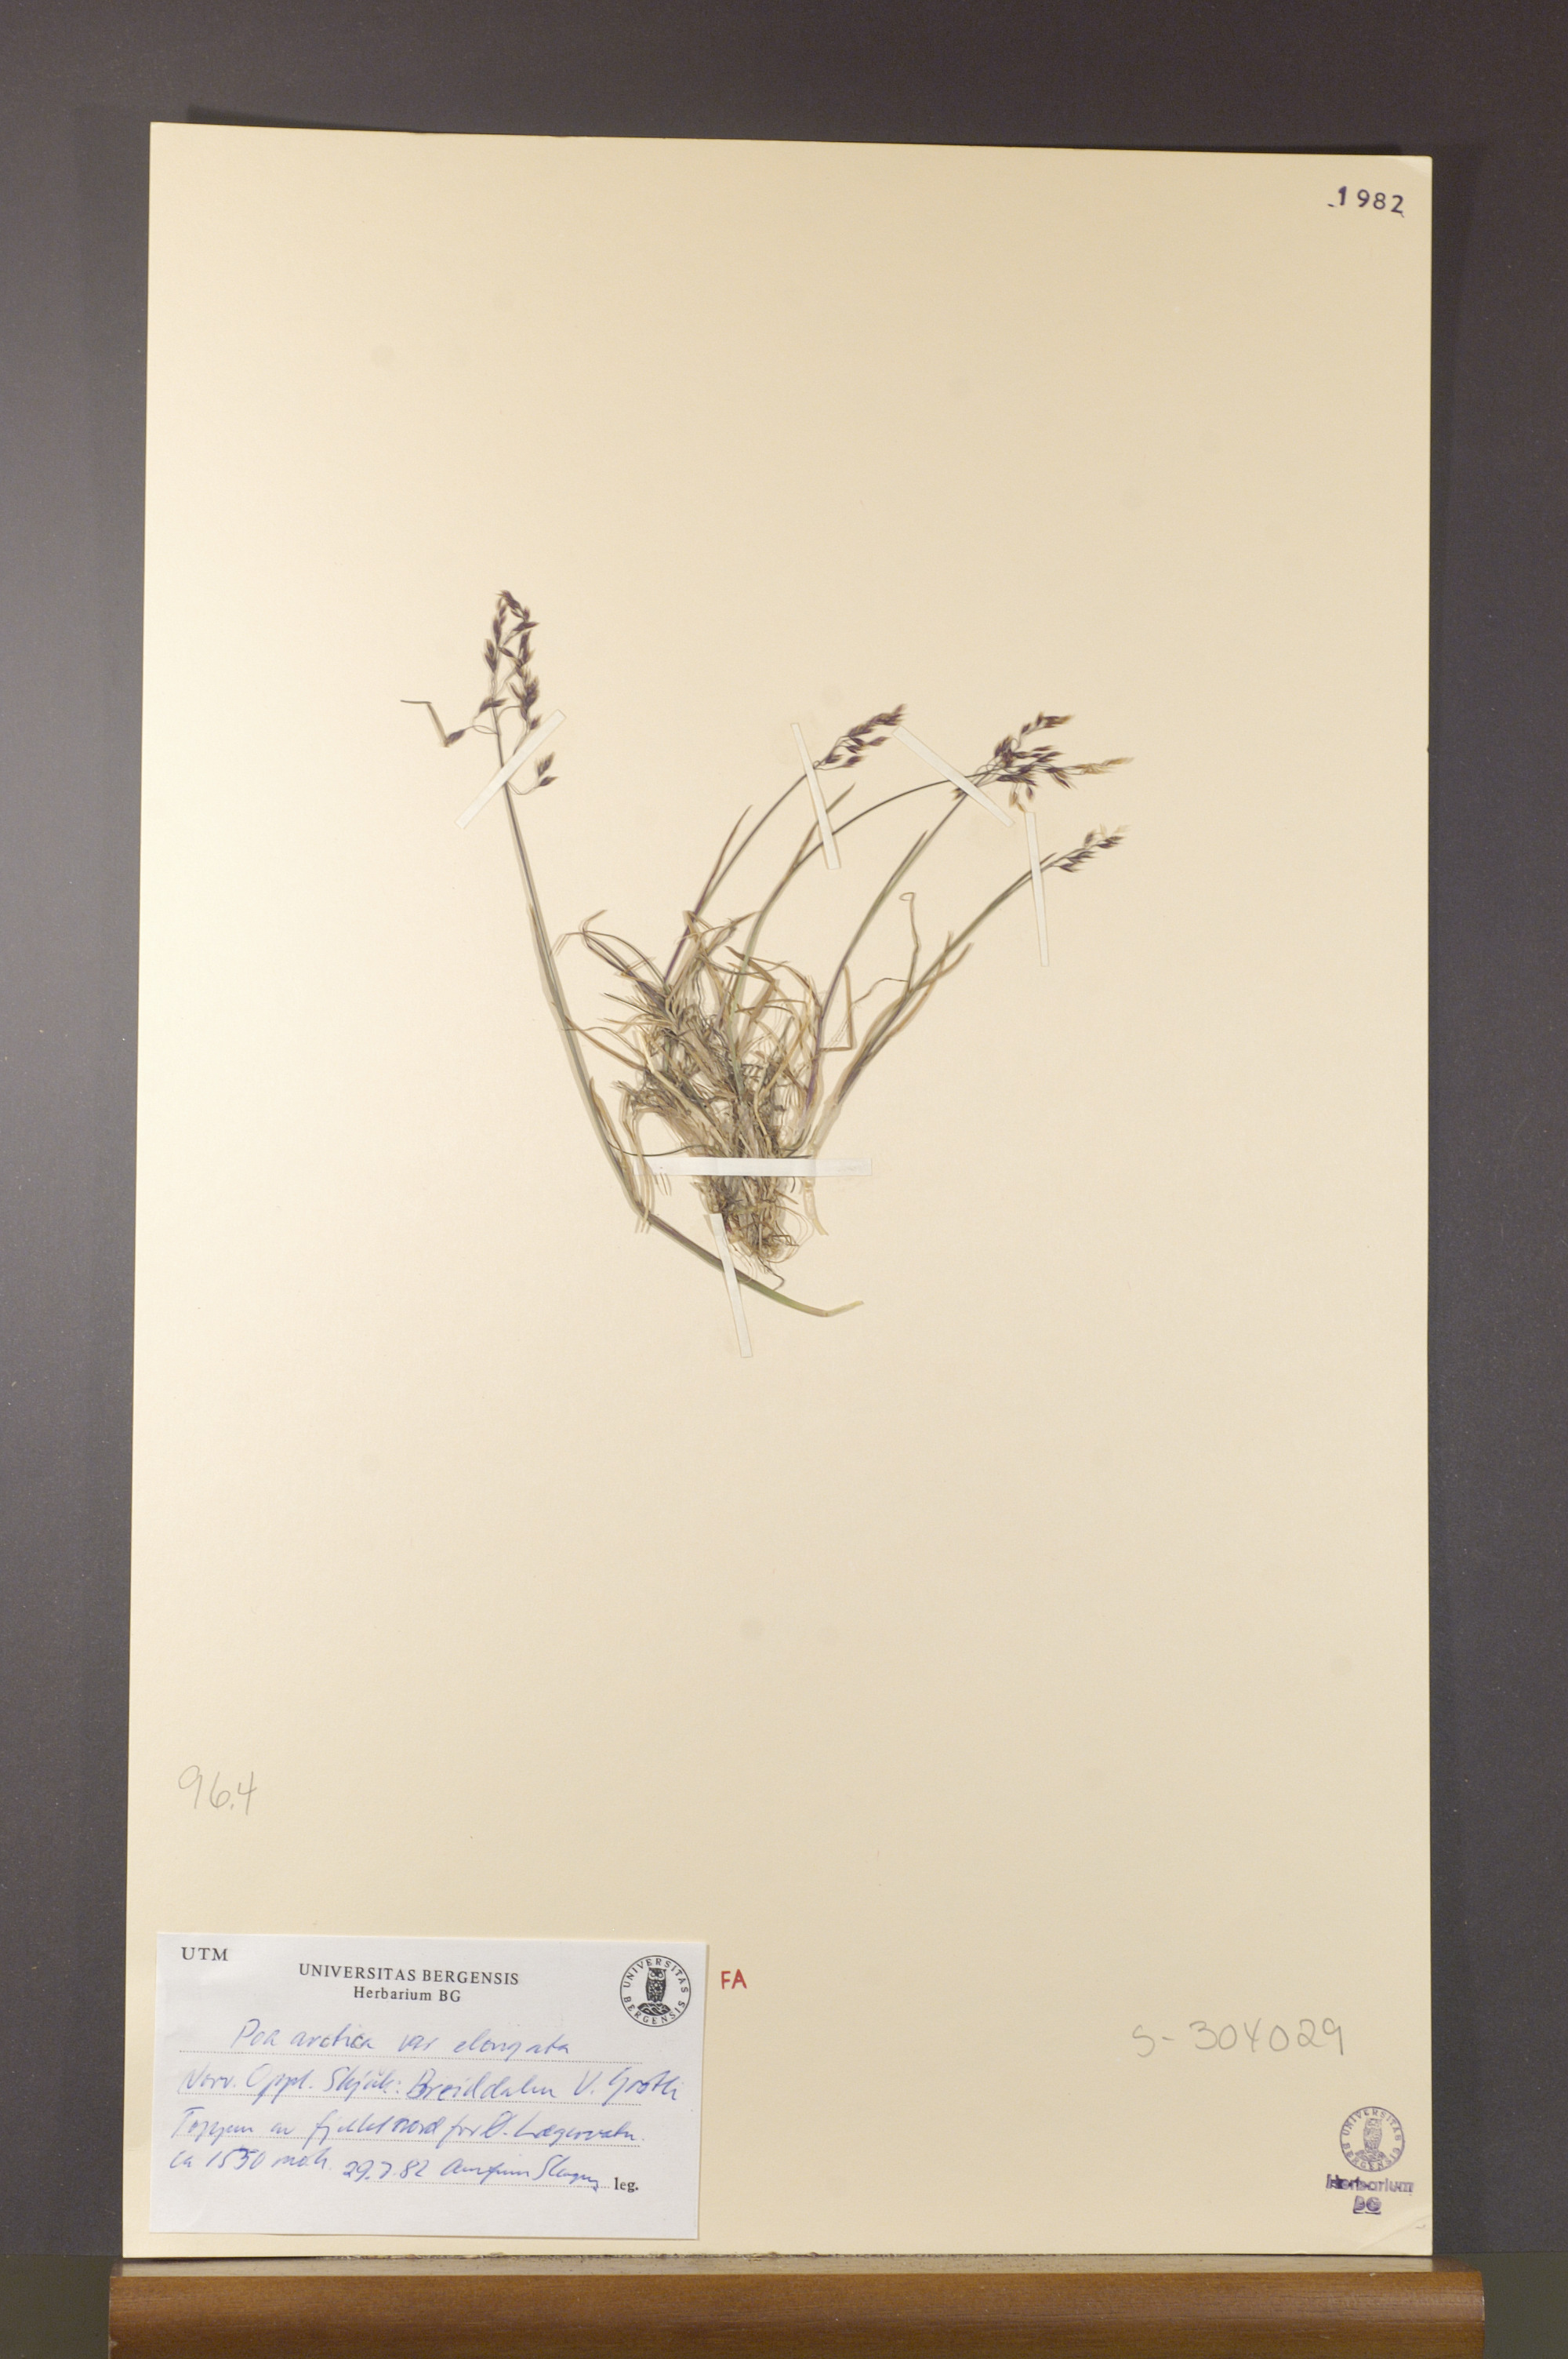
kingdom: Plantae
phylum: Tracheophyta
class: Liliopsida
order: Poales
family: Poaceae
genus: Poa
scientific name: Poa arctica
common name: Arctic bluegrass
